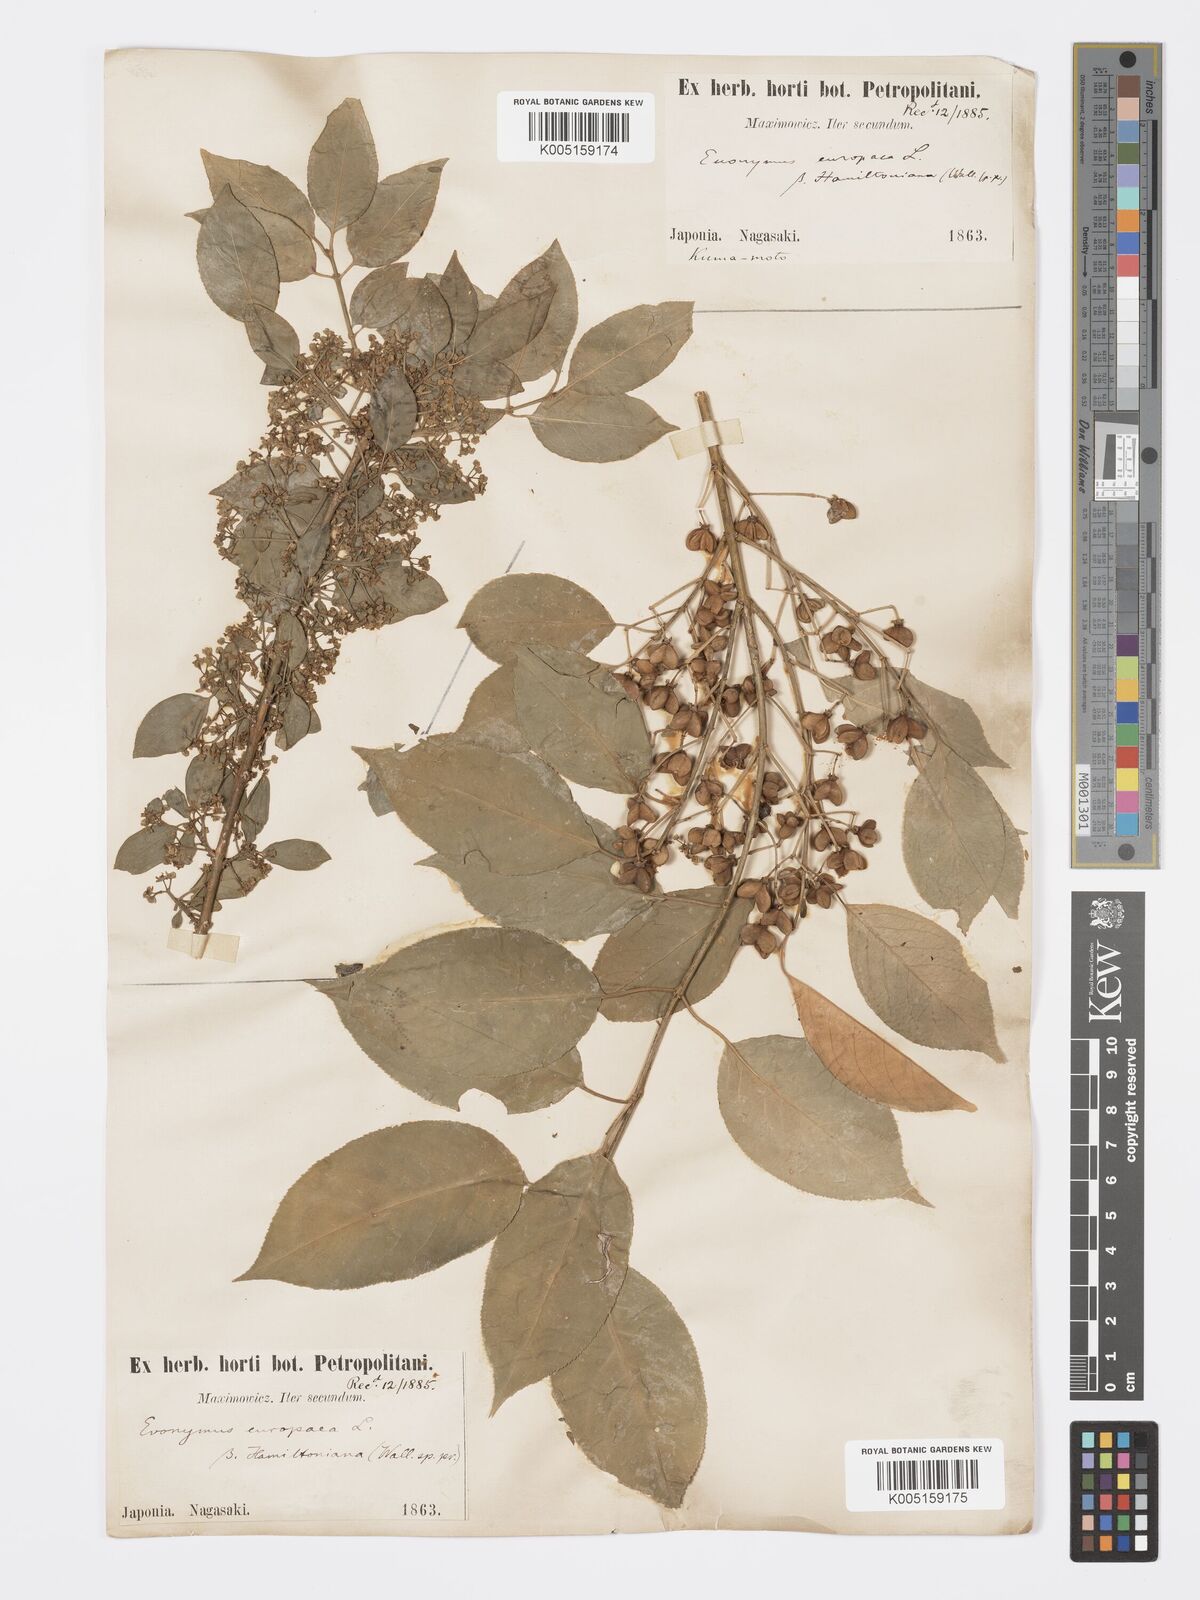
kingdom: Plantae
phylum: Tracheophyta
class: Magnoliopsida
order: Celastrales
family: Celastraceae
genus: Euonymus
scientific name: Euonymus hamiltonianus
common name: Hamilton's spindletree
